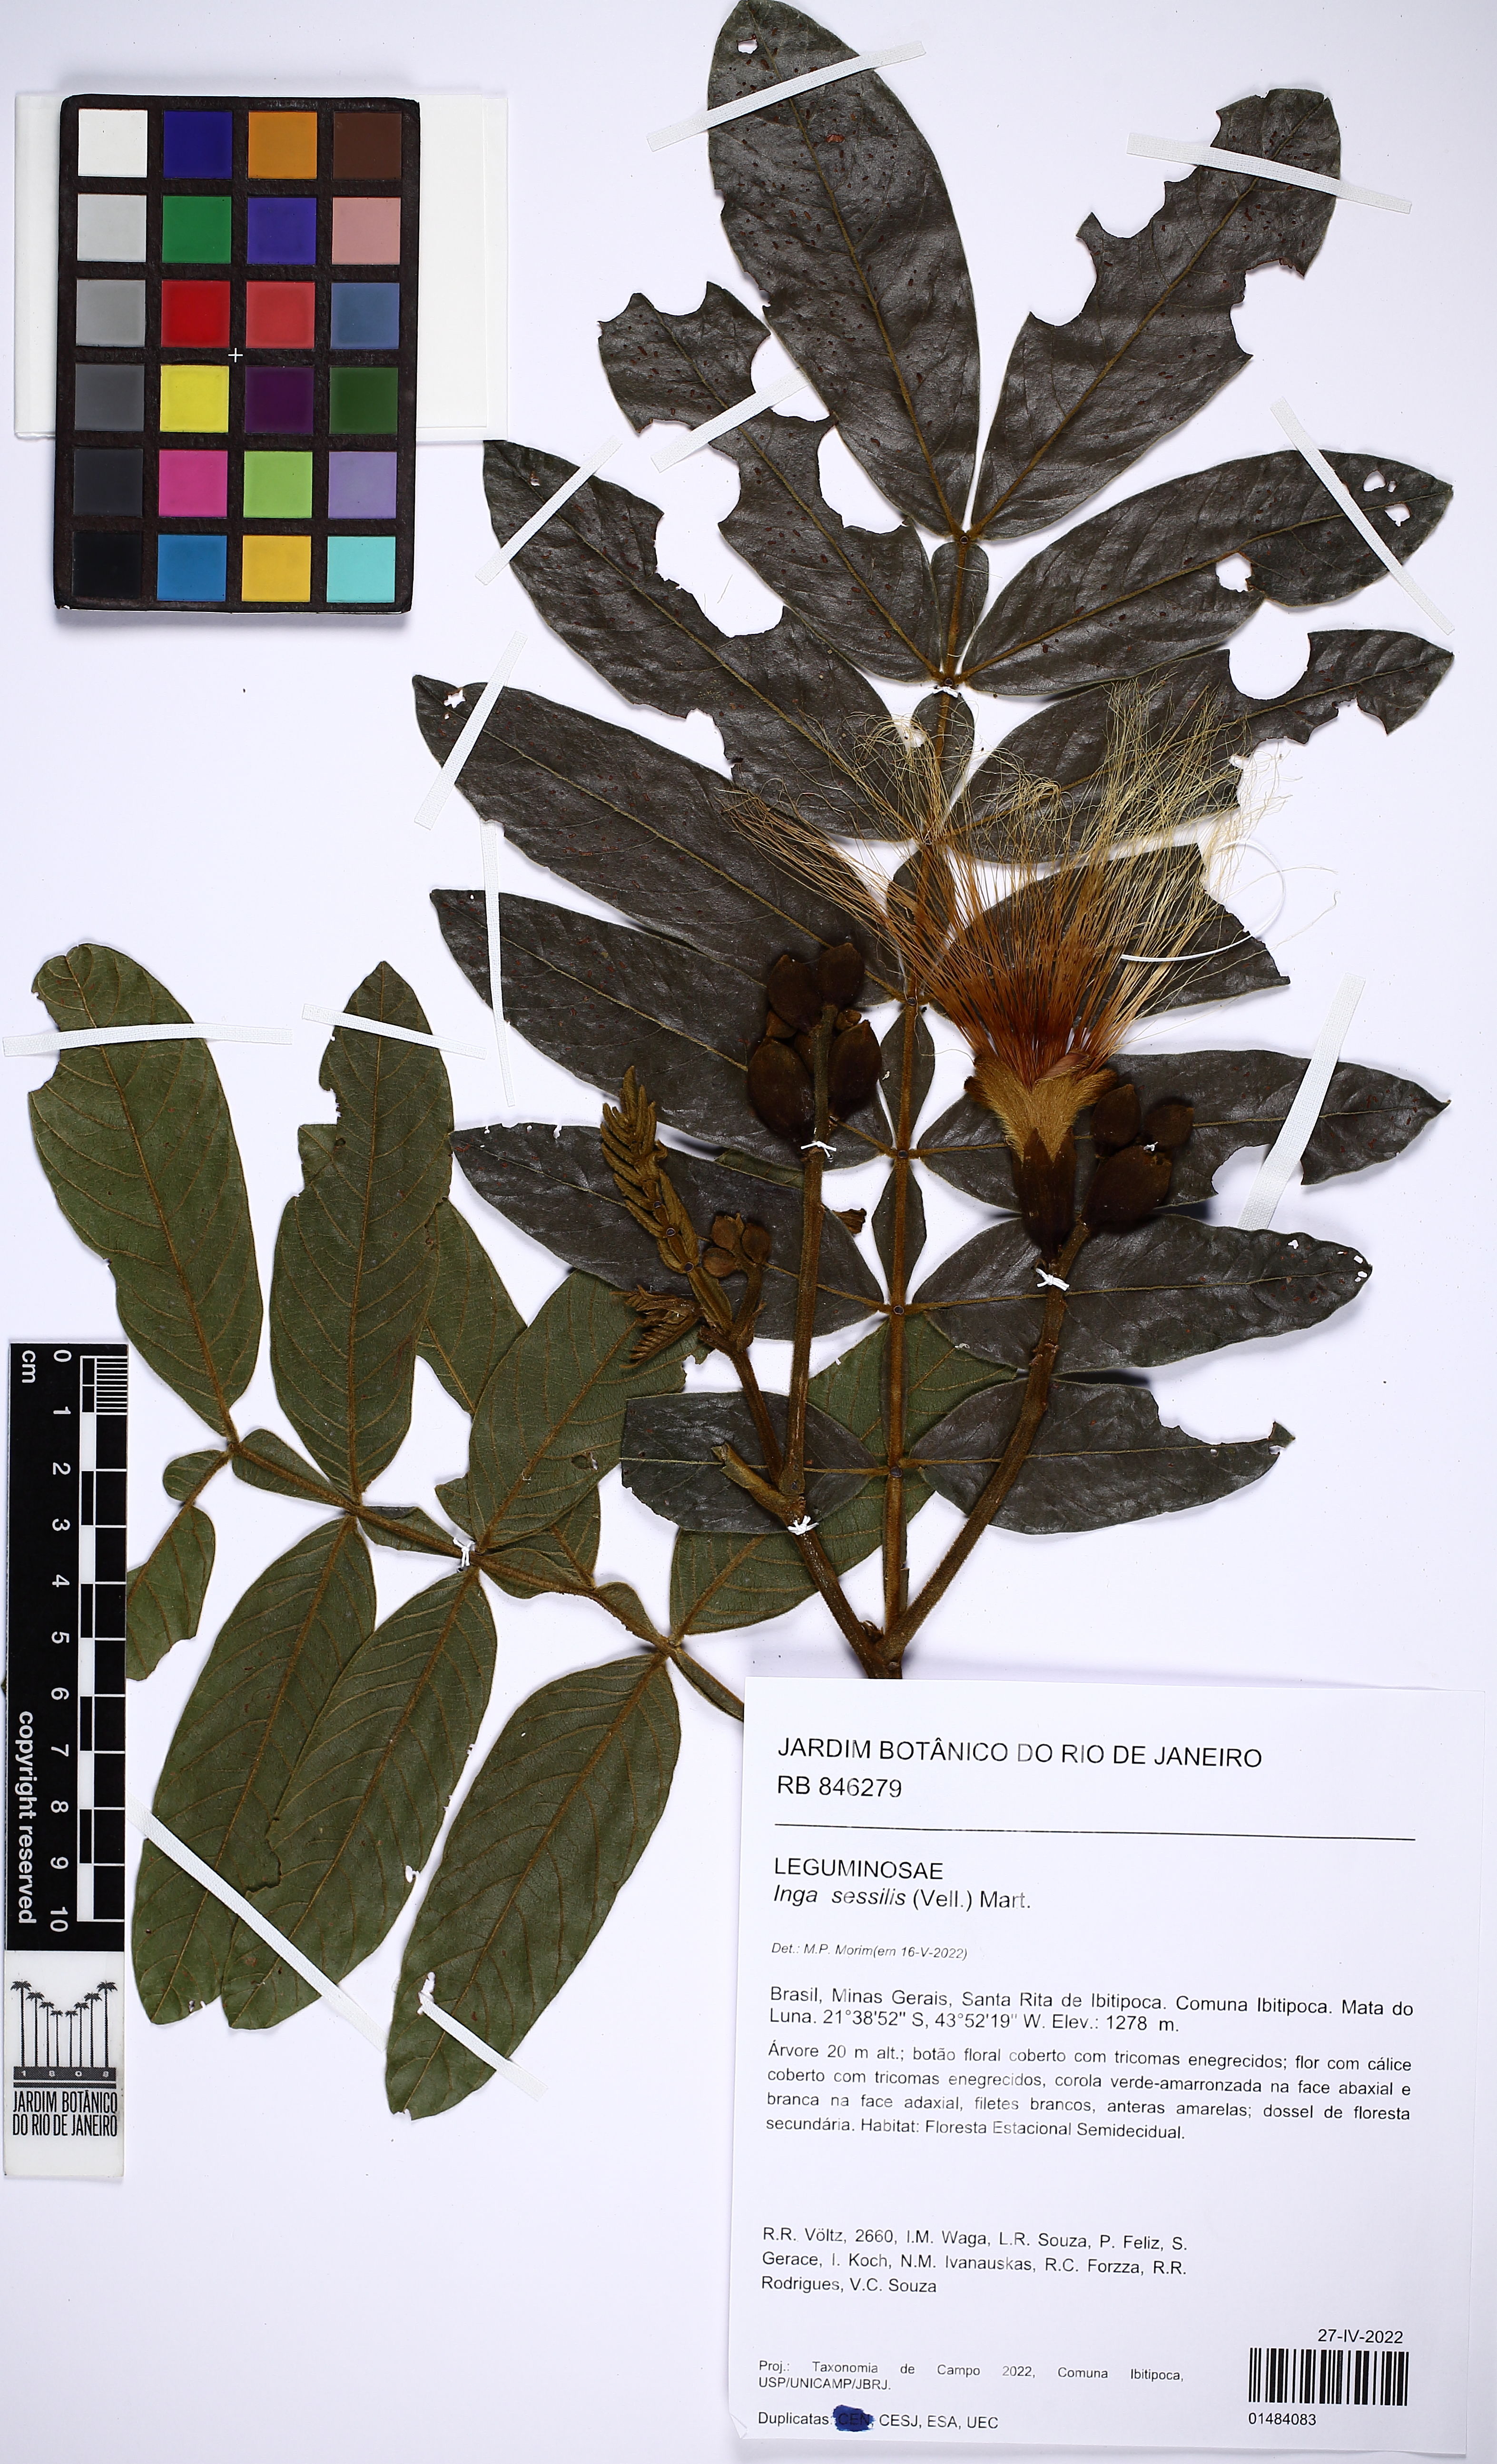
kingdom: Plantae
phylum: Tracheophyta
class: Magnoliopsida
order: Fabales
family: Fabaceae
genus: Inga
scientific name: Inga sessilis
